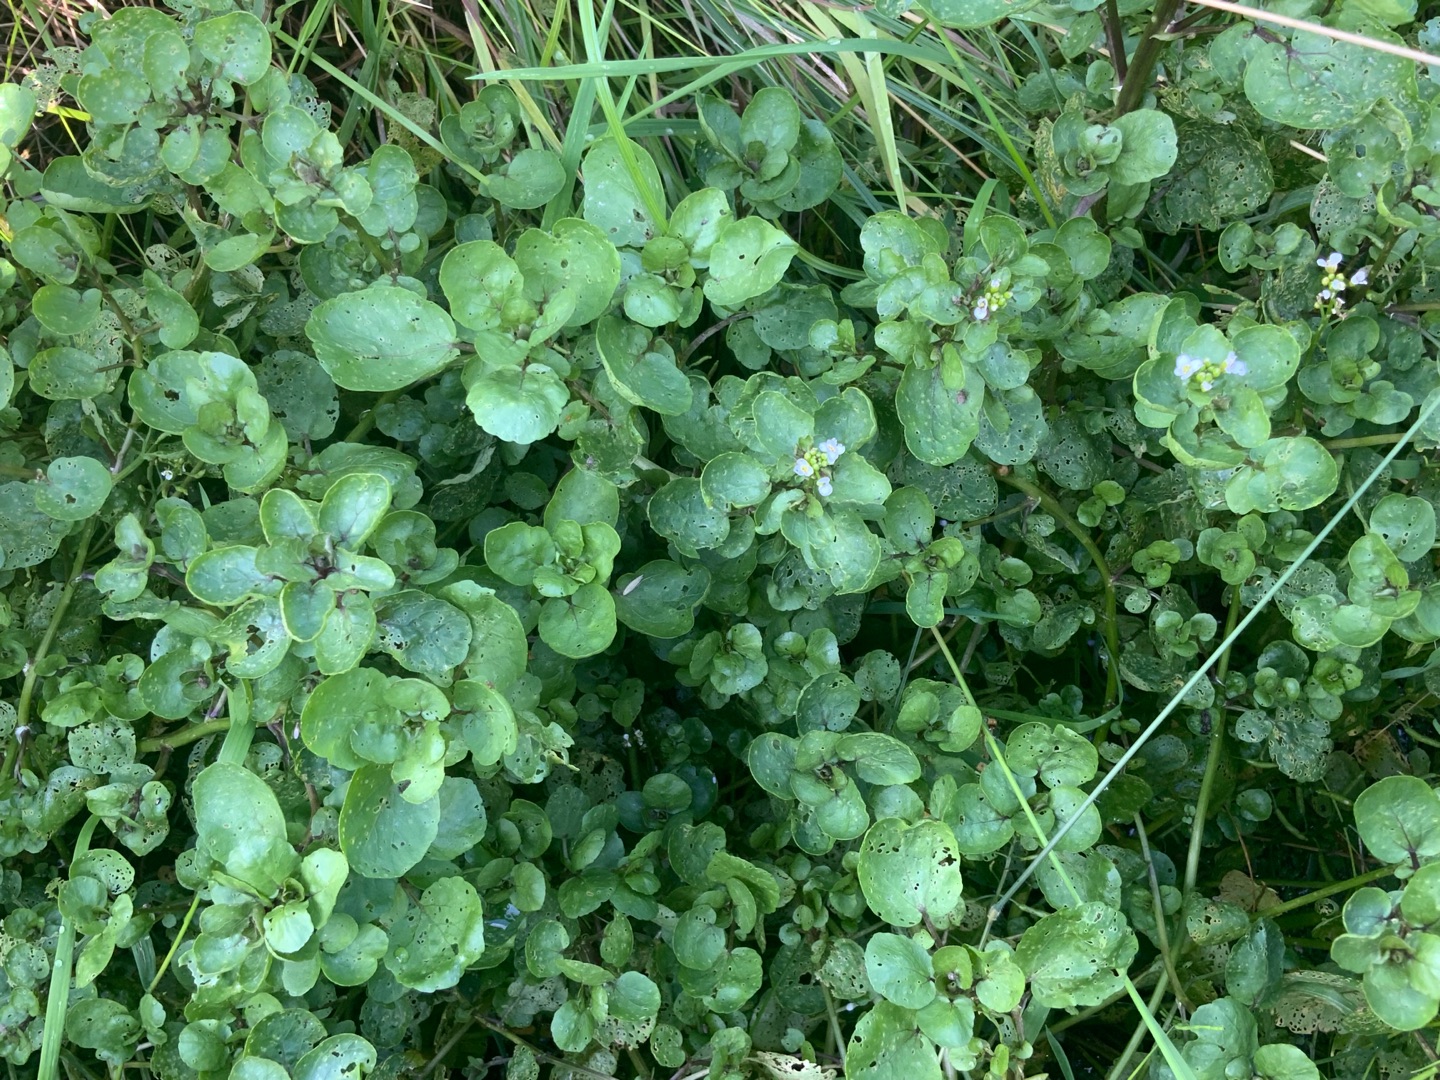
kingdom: Plantae
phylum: Tracheophyta
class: Magnoliopsida
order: Brassicales
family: Brassicaceae
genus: Nasturtium
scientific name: Nasturtium officinale
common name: Tykskulpet brøndkarse
